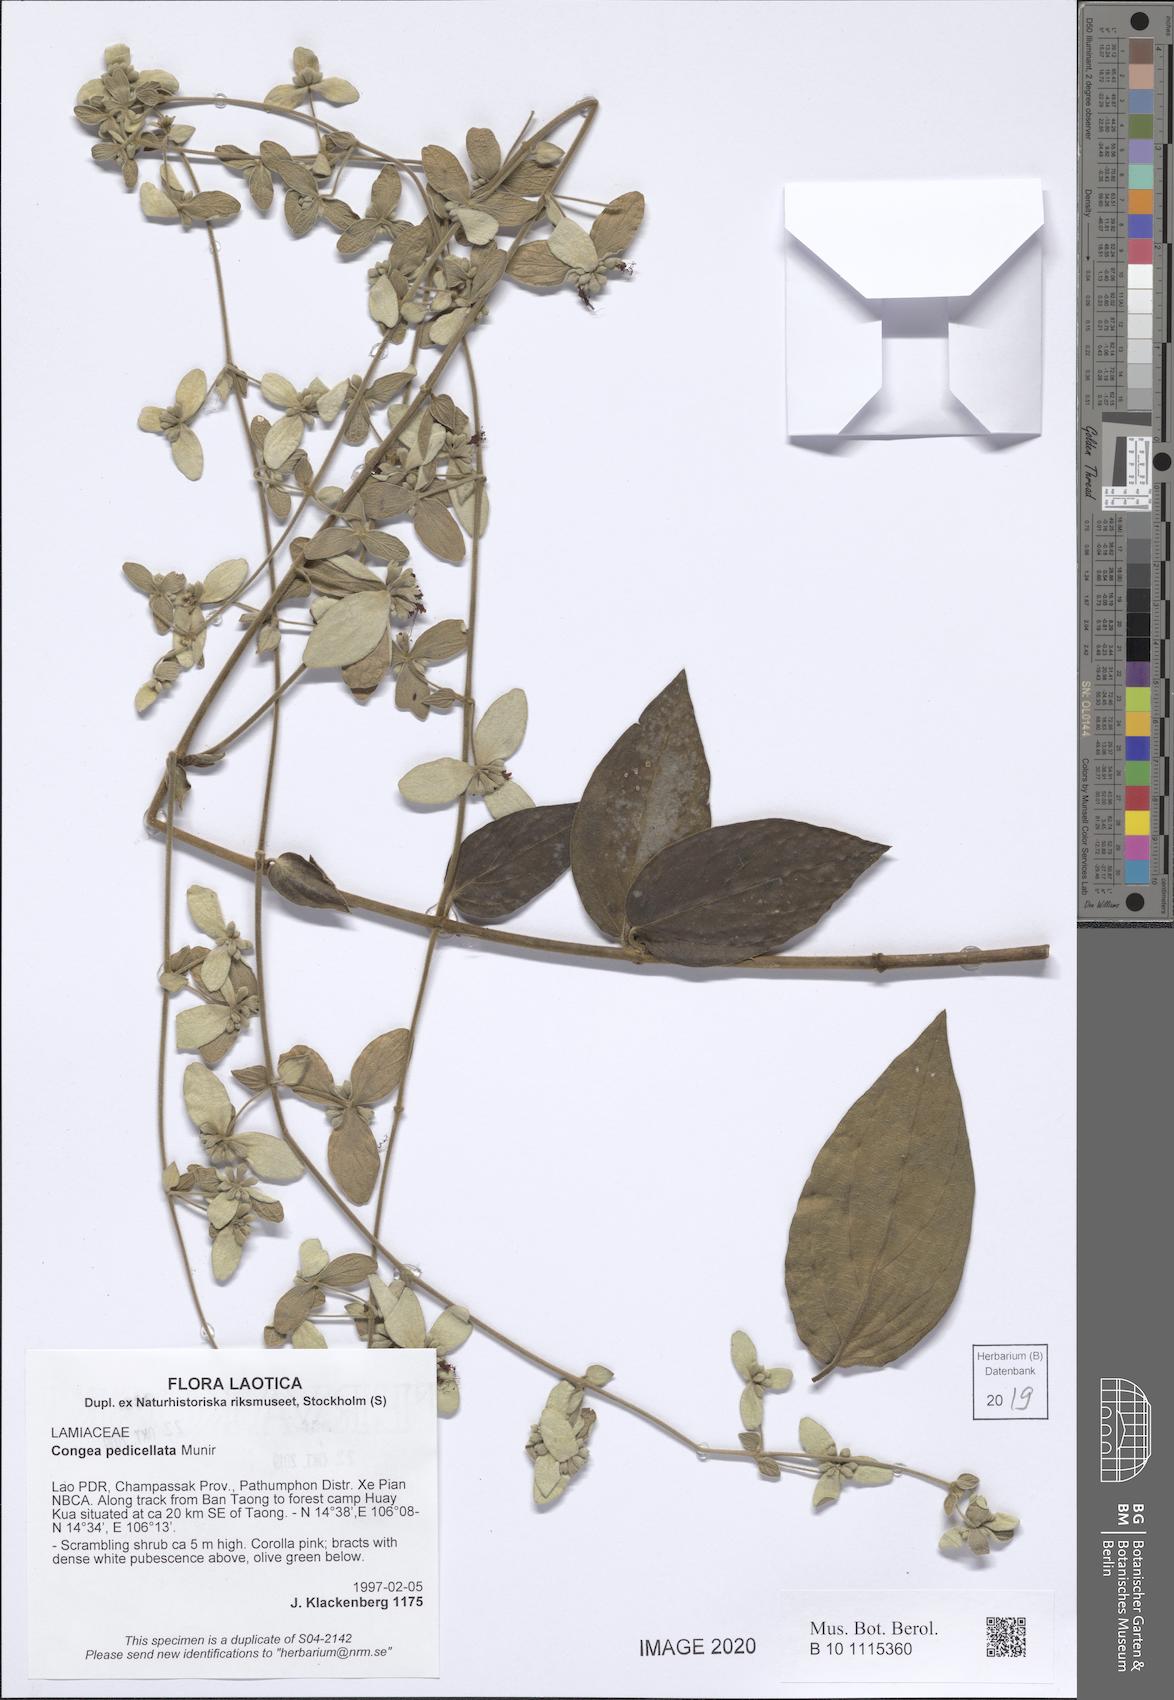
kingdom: Plantae
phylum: Tracheophyta
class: Magnoliopsida
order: Lamiales
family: Lamiaceae
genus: Congea
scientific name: Congea pedicellata
